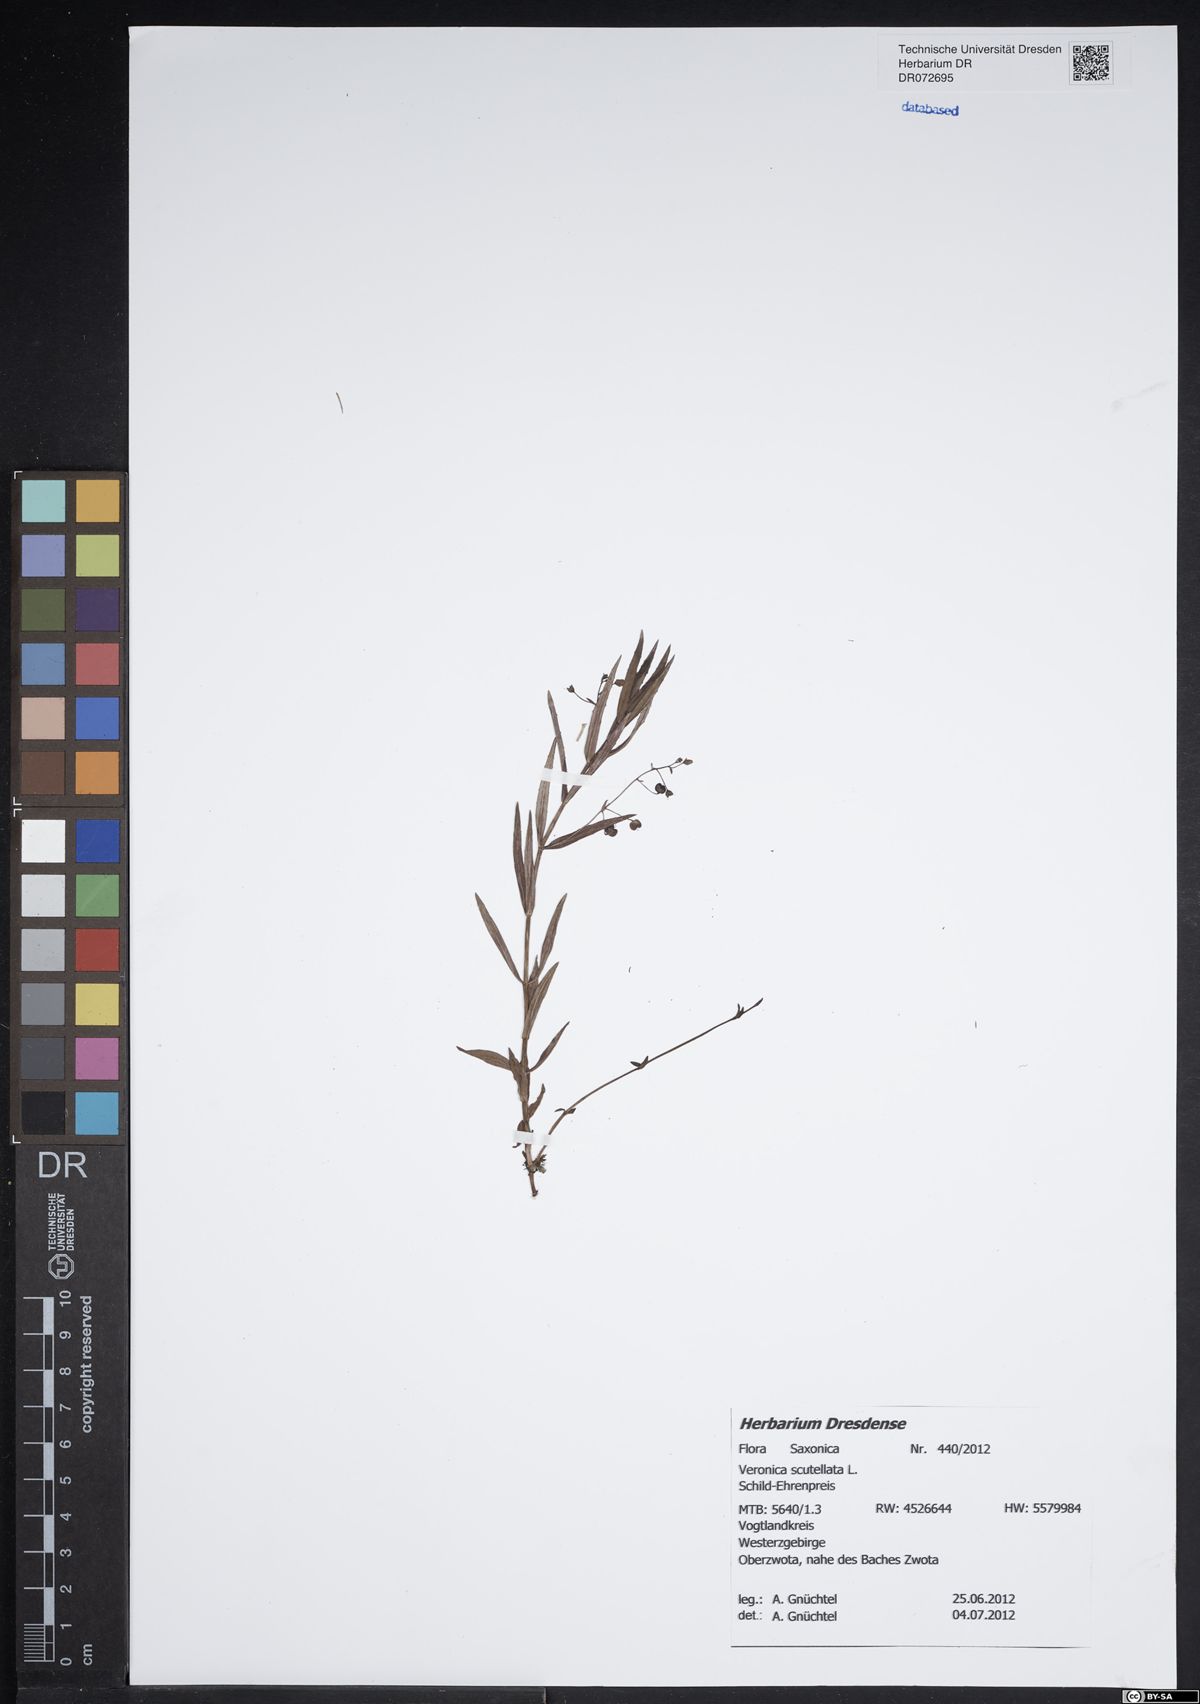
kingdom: Plantae
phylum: Tracheophyta
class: Magnoliopsida
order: Lamiales
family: Plantaginaceae
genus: Veronica
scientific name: Veronica scutellata
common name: Marsh speedwell
